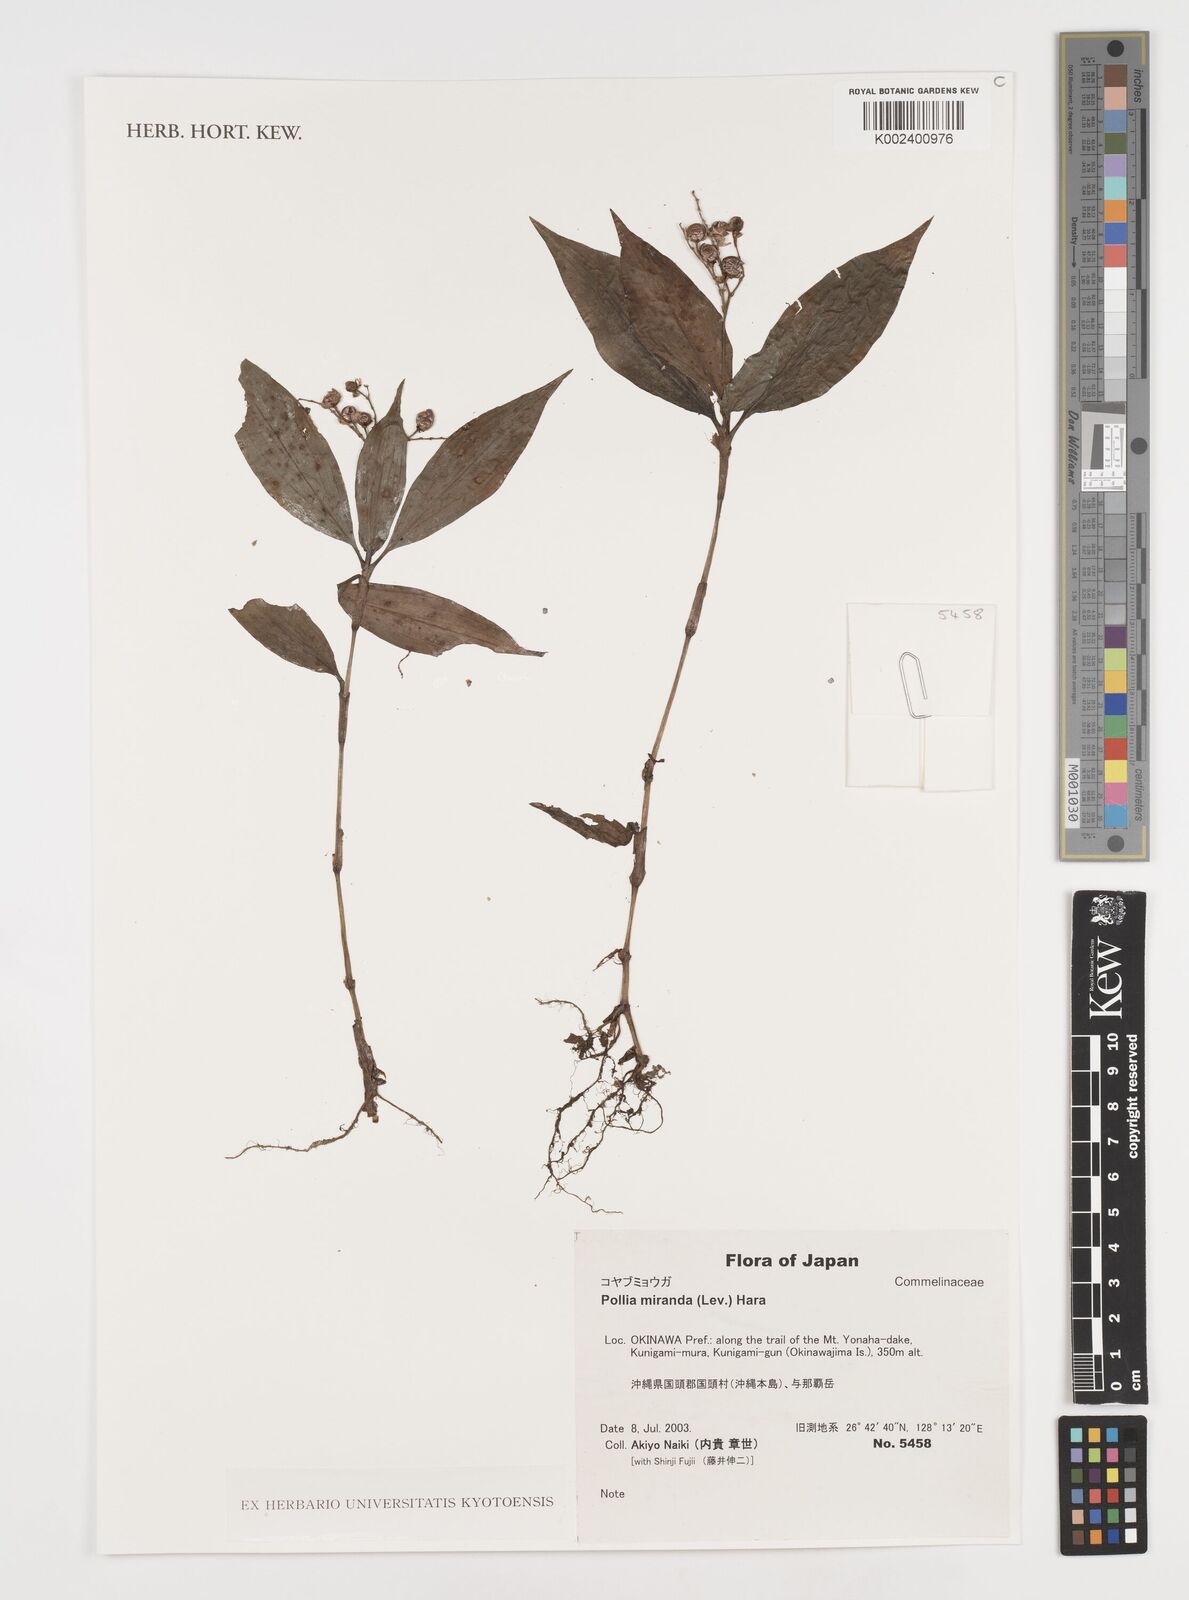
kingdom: Plantae
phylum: Tracheophyta
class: Liliopsida
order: Commelinales
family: Commelinaceae
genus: Pollia
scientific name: Pollia miranda
